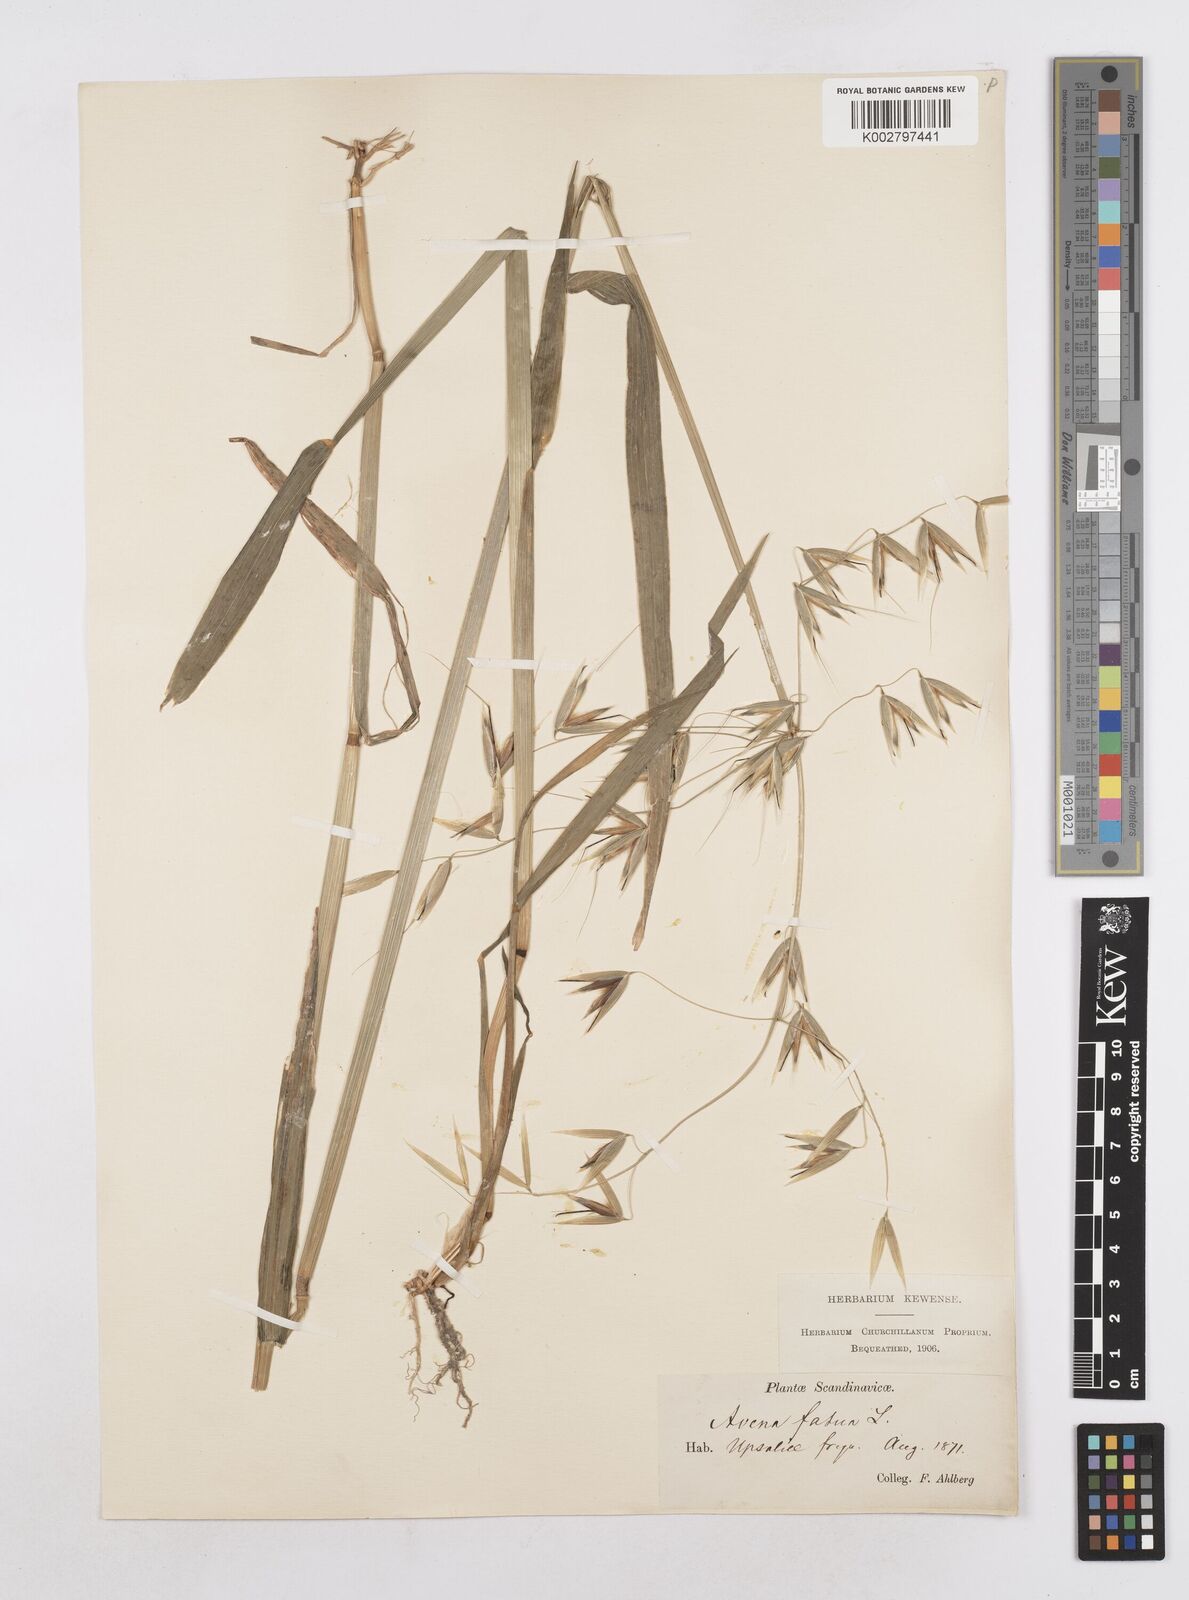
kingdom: Plantae
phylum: Tracheophyta
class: Liliopsida
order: Poales
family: Poaceae
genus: Avena
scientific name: Avena fatua
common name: Wild oat
